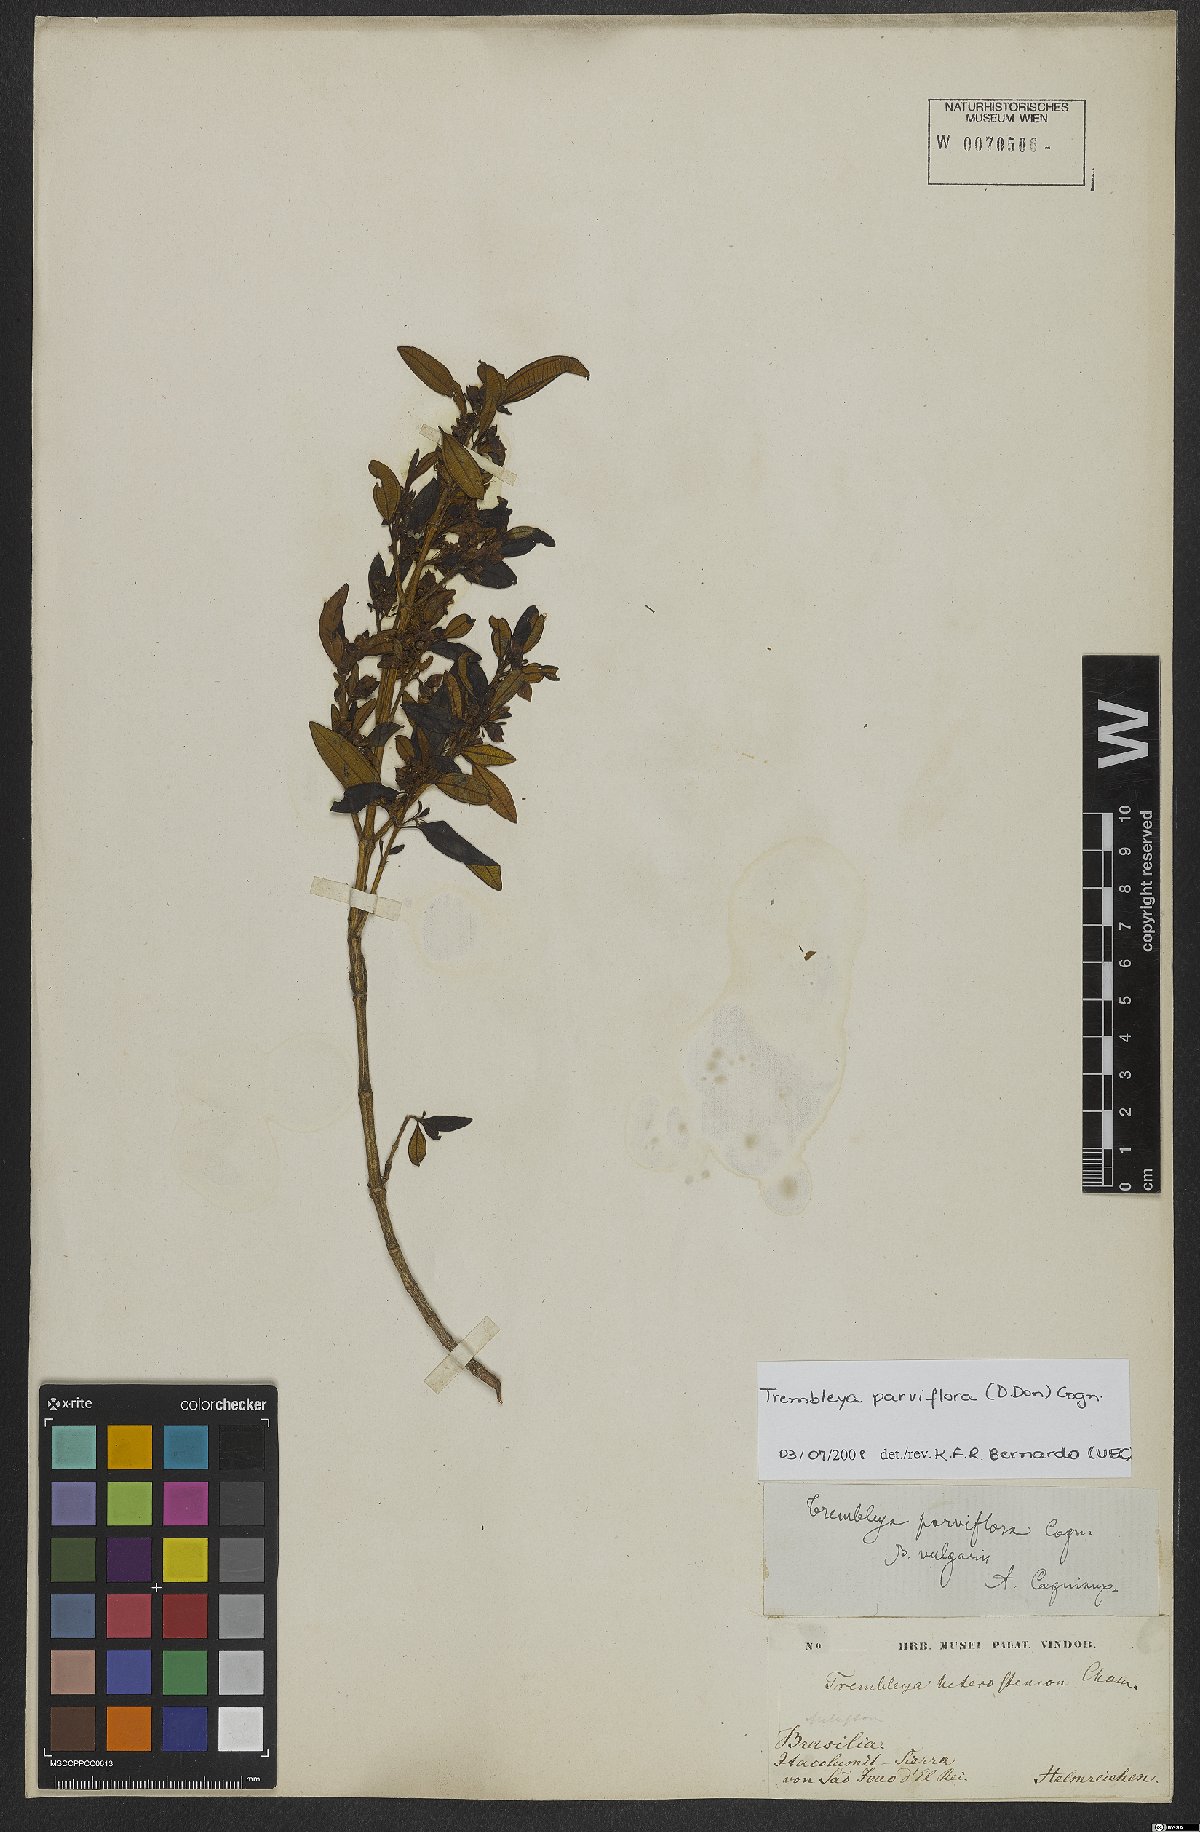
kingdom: Plantae
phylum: Tracheophyta
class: Magnoliopsida
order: Myrtales
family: Melastomataceae
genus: Microlicia
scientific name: Microlicia parviflora
